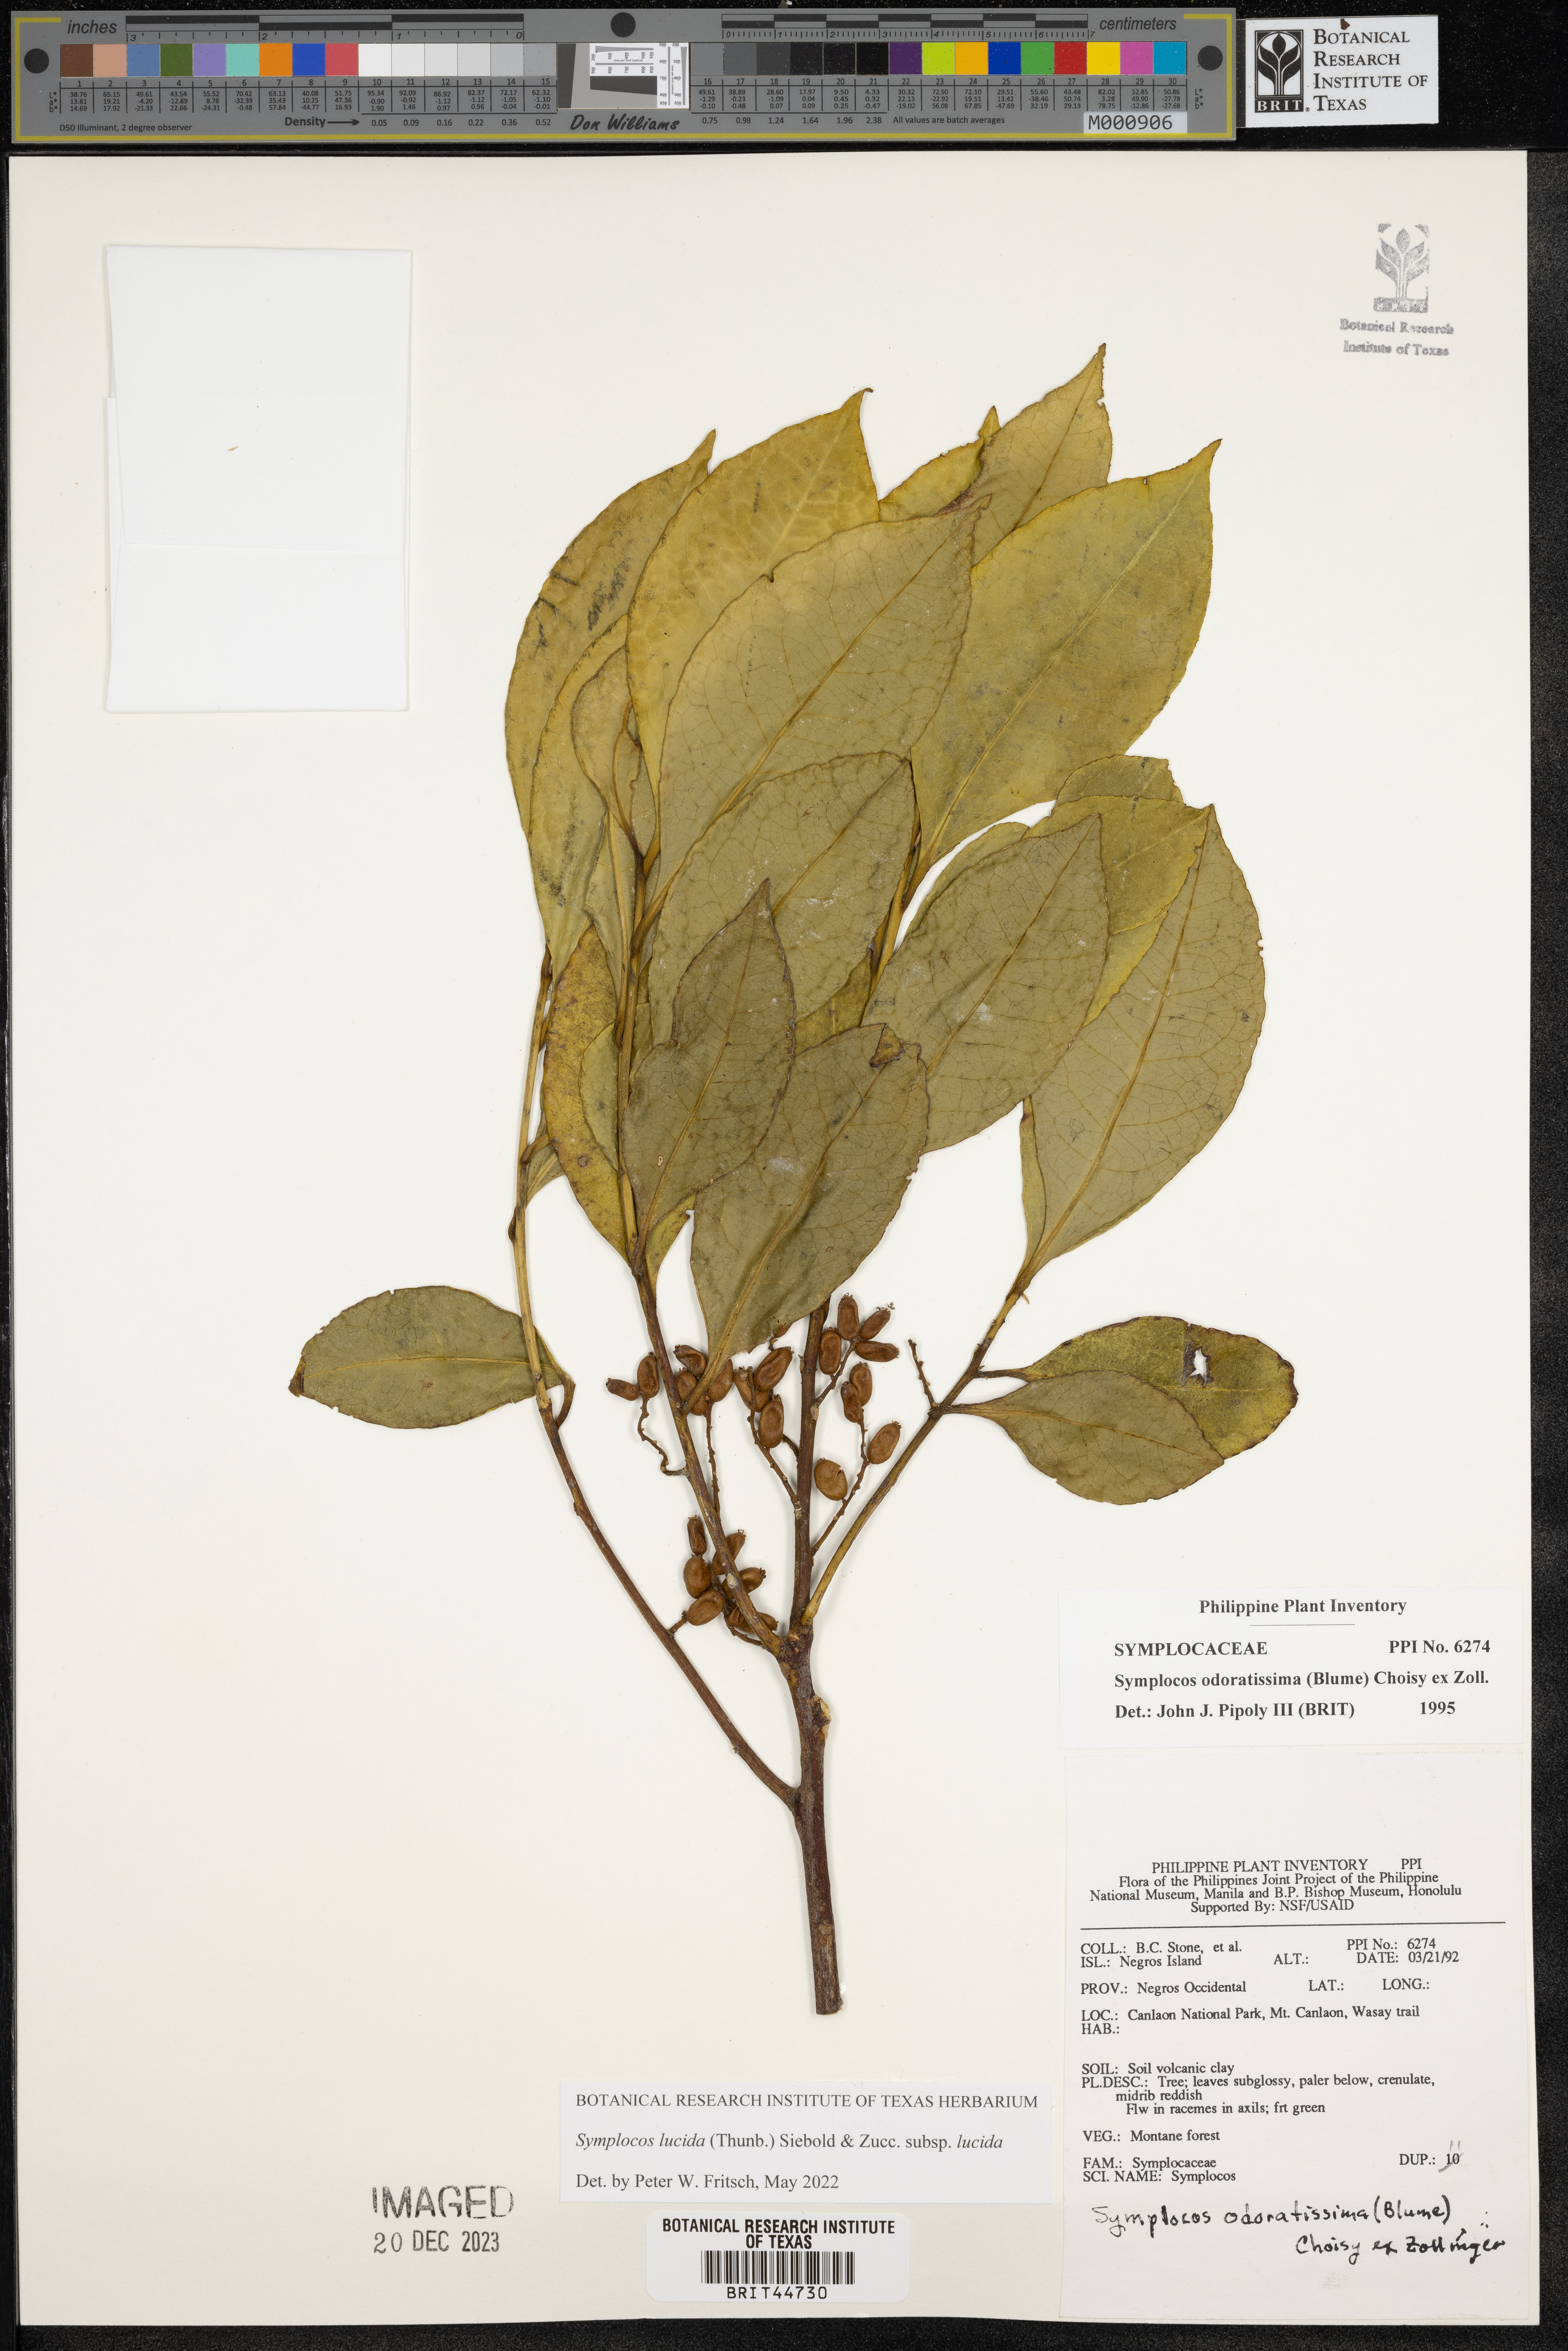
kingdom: Plantae
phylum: Tracheophyta
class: Magnoliopsida
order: Ericales
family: Symplocaceae
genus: Symplocos
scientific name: Symplocos odoratissima
